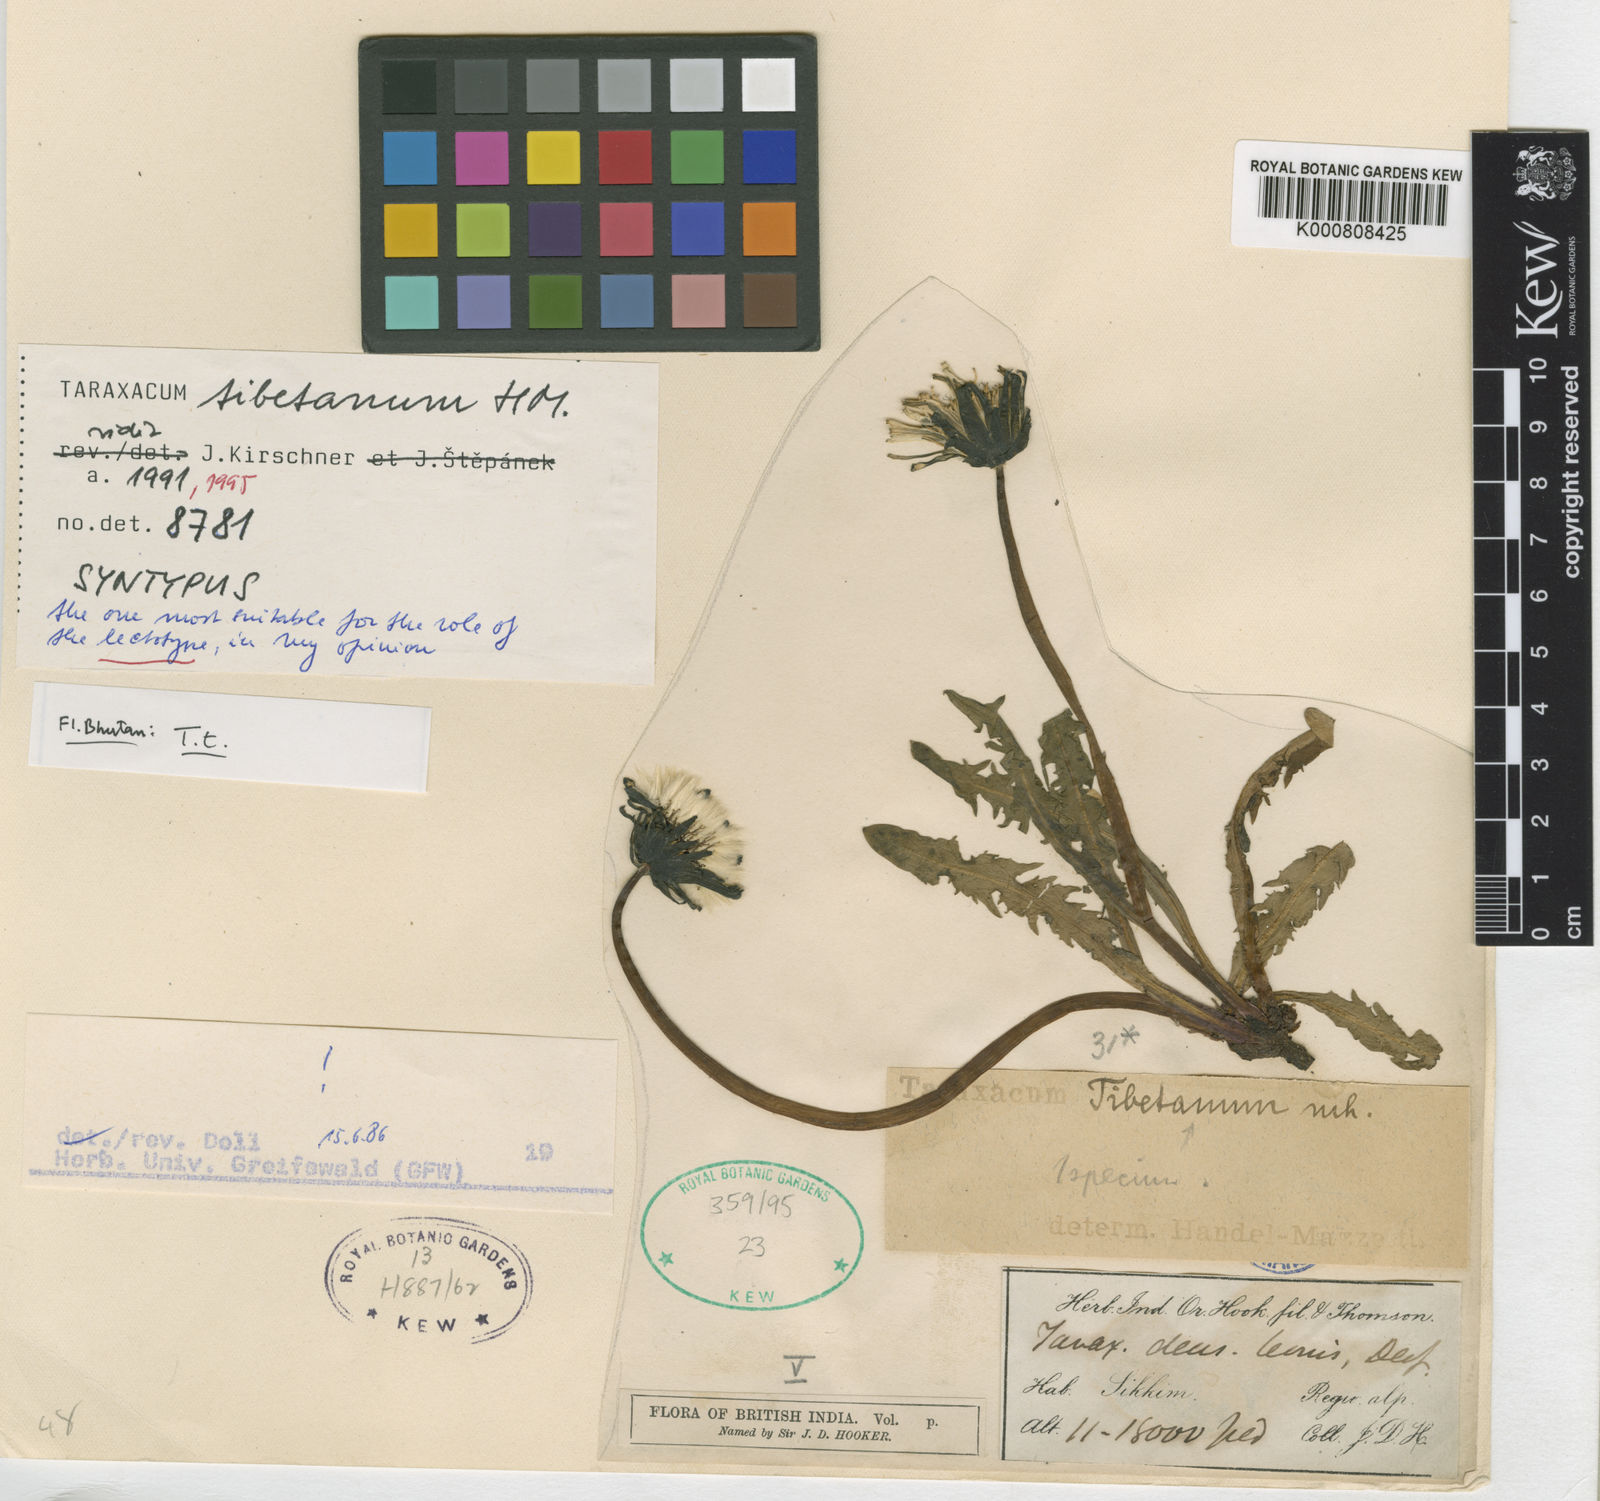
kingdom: Plantae
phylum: Tracheophyta
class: Magnoliopsida
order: Asterales
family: Asteraceae
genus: Taraxacum
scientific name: Taraxacum tibetanum
